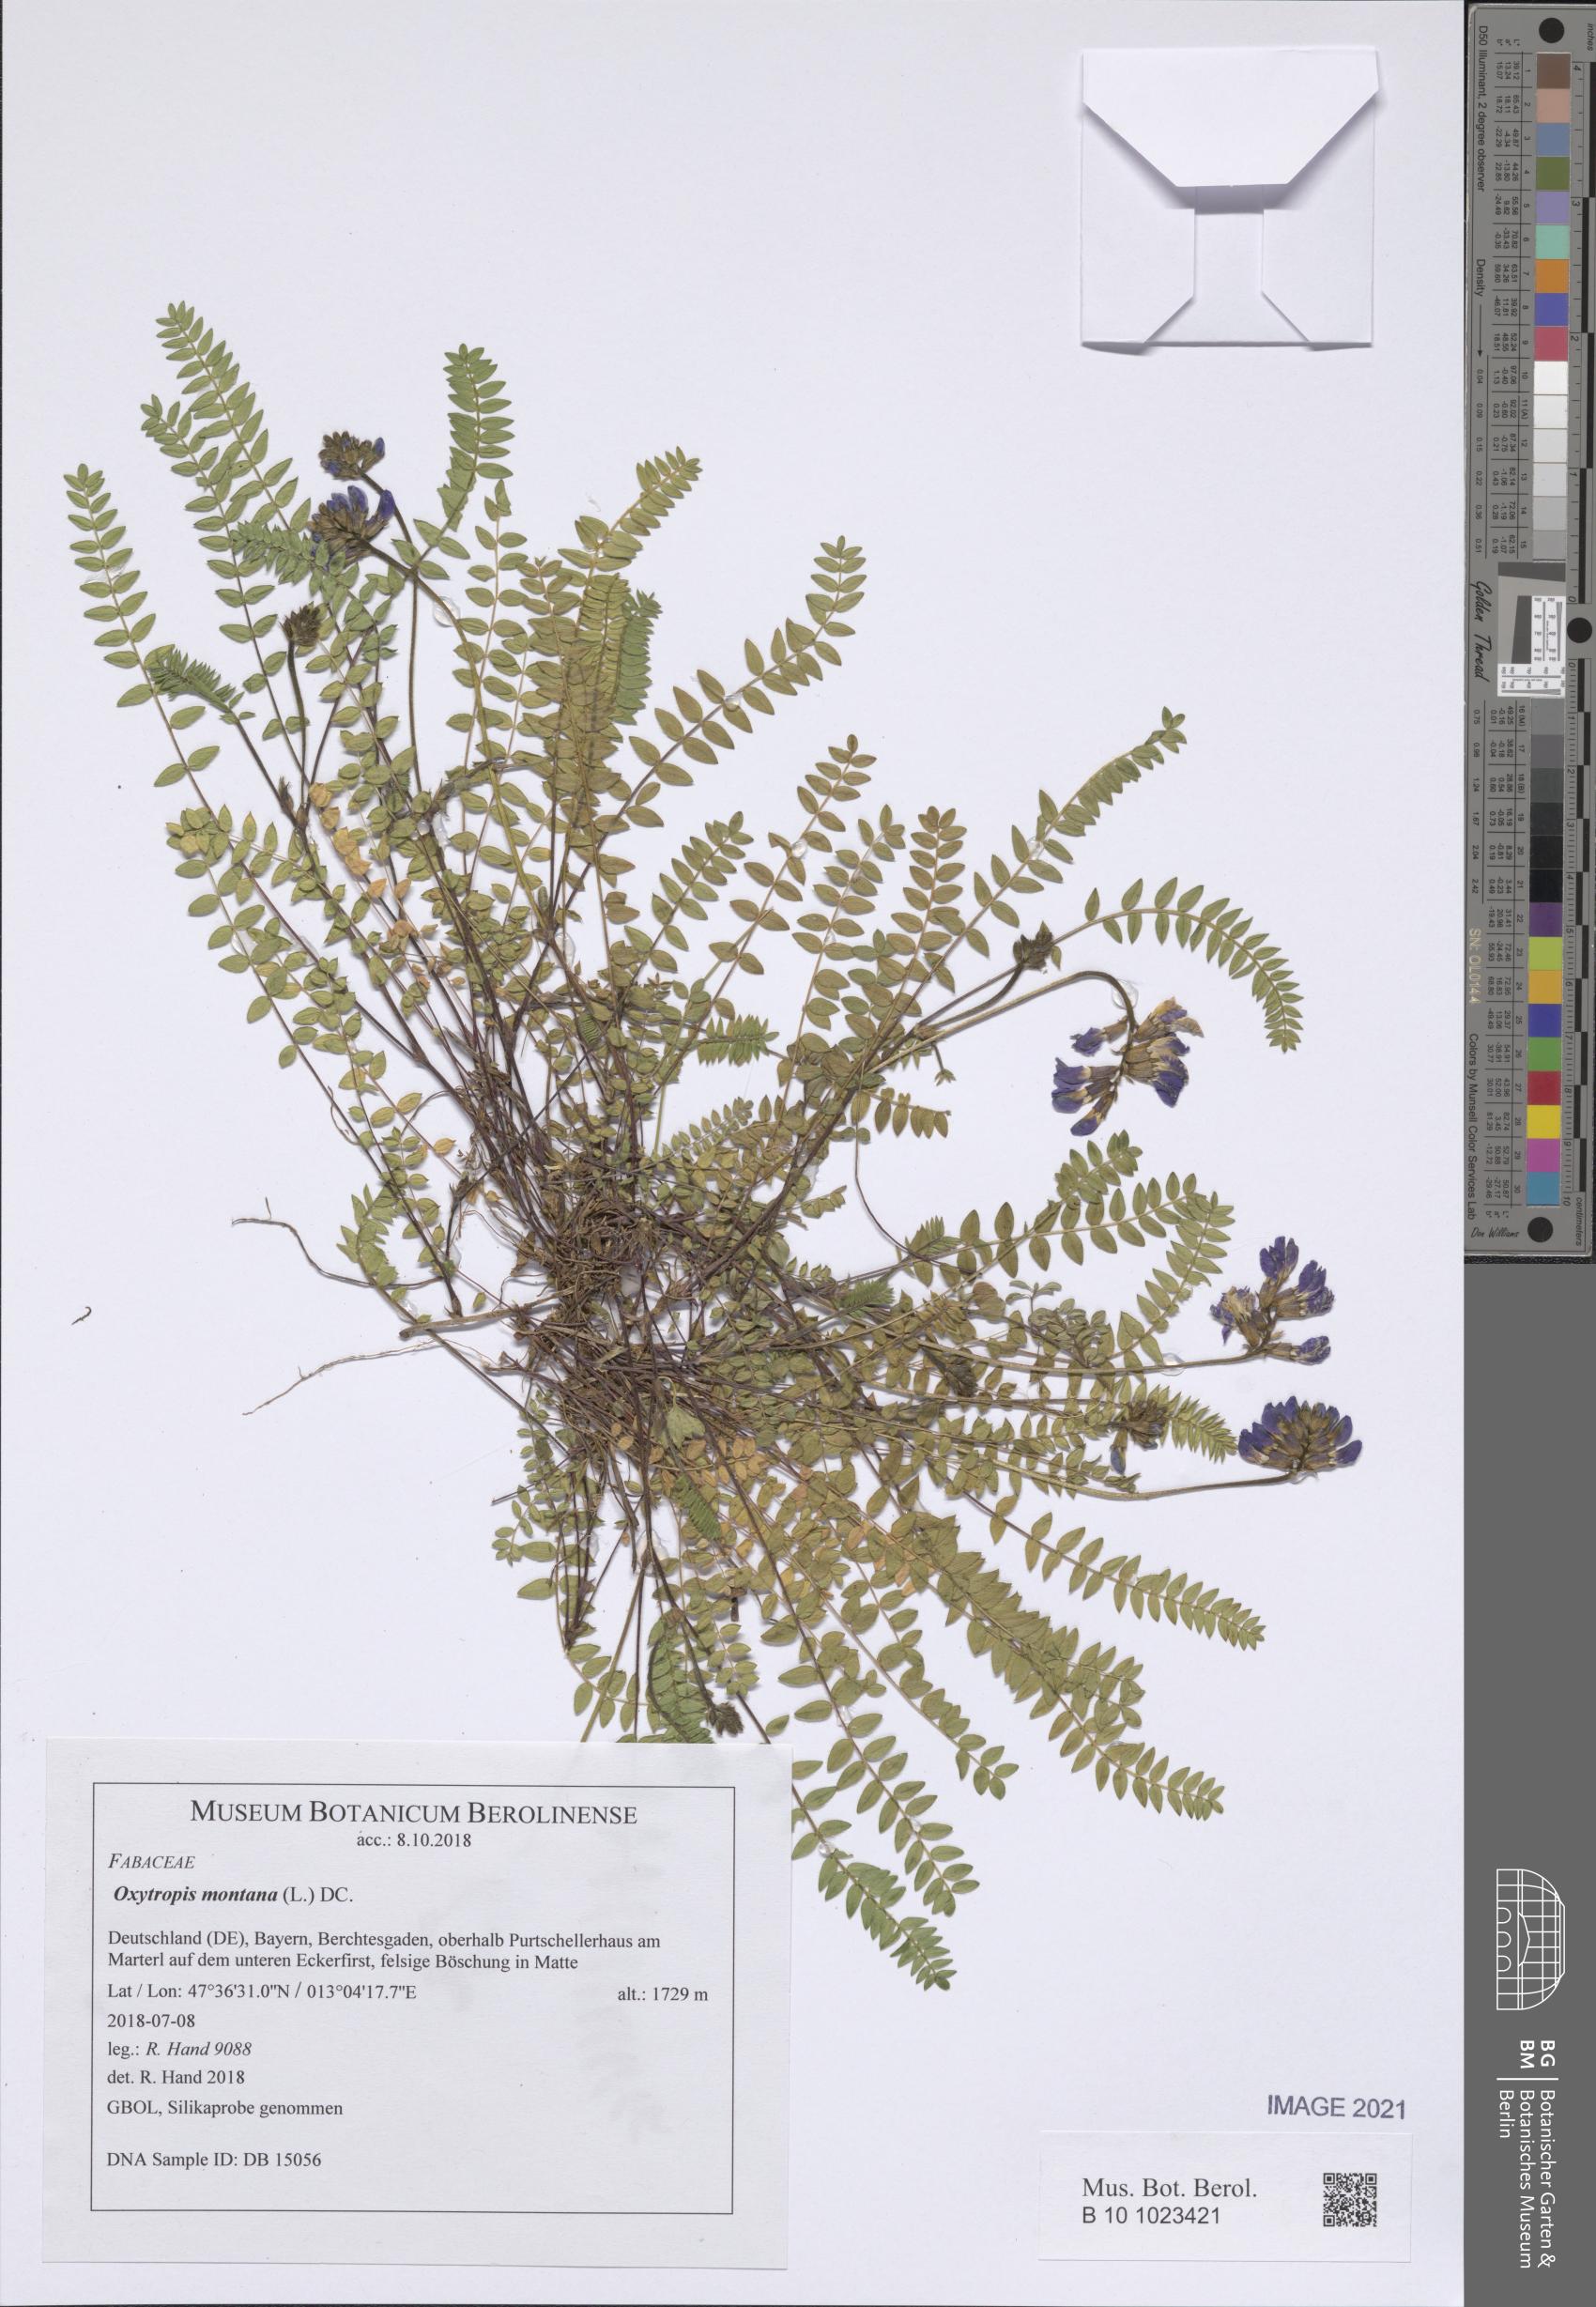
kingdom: Plantae
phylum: Tracheophyta
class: Magnoliopsida
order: Fabales
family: Fabaceae
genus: Oxytropis
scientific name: Oxytropis montana
